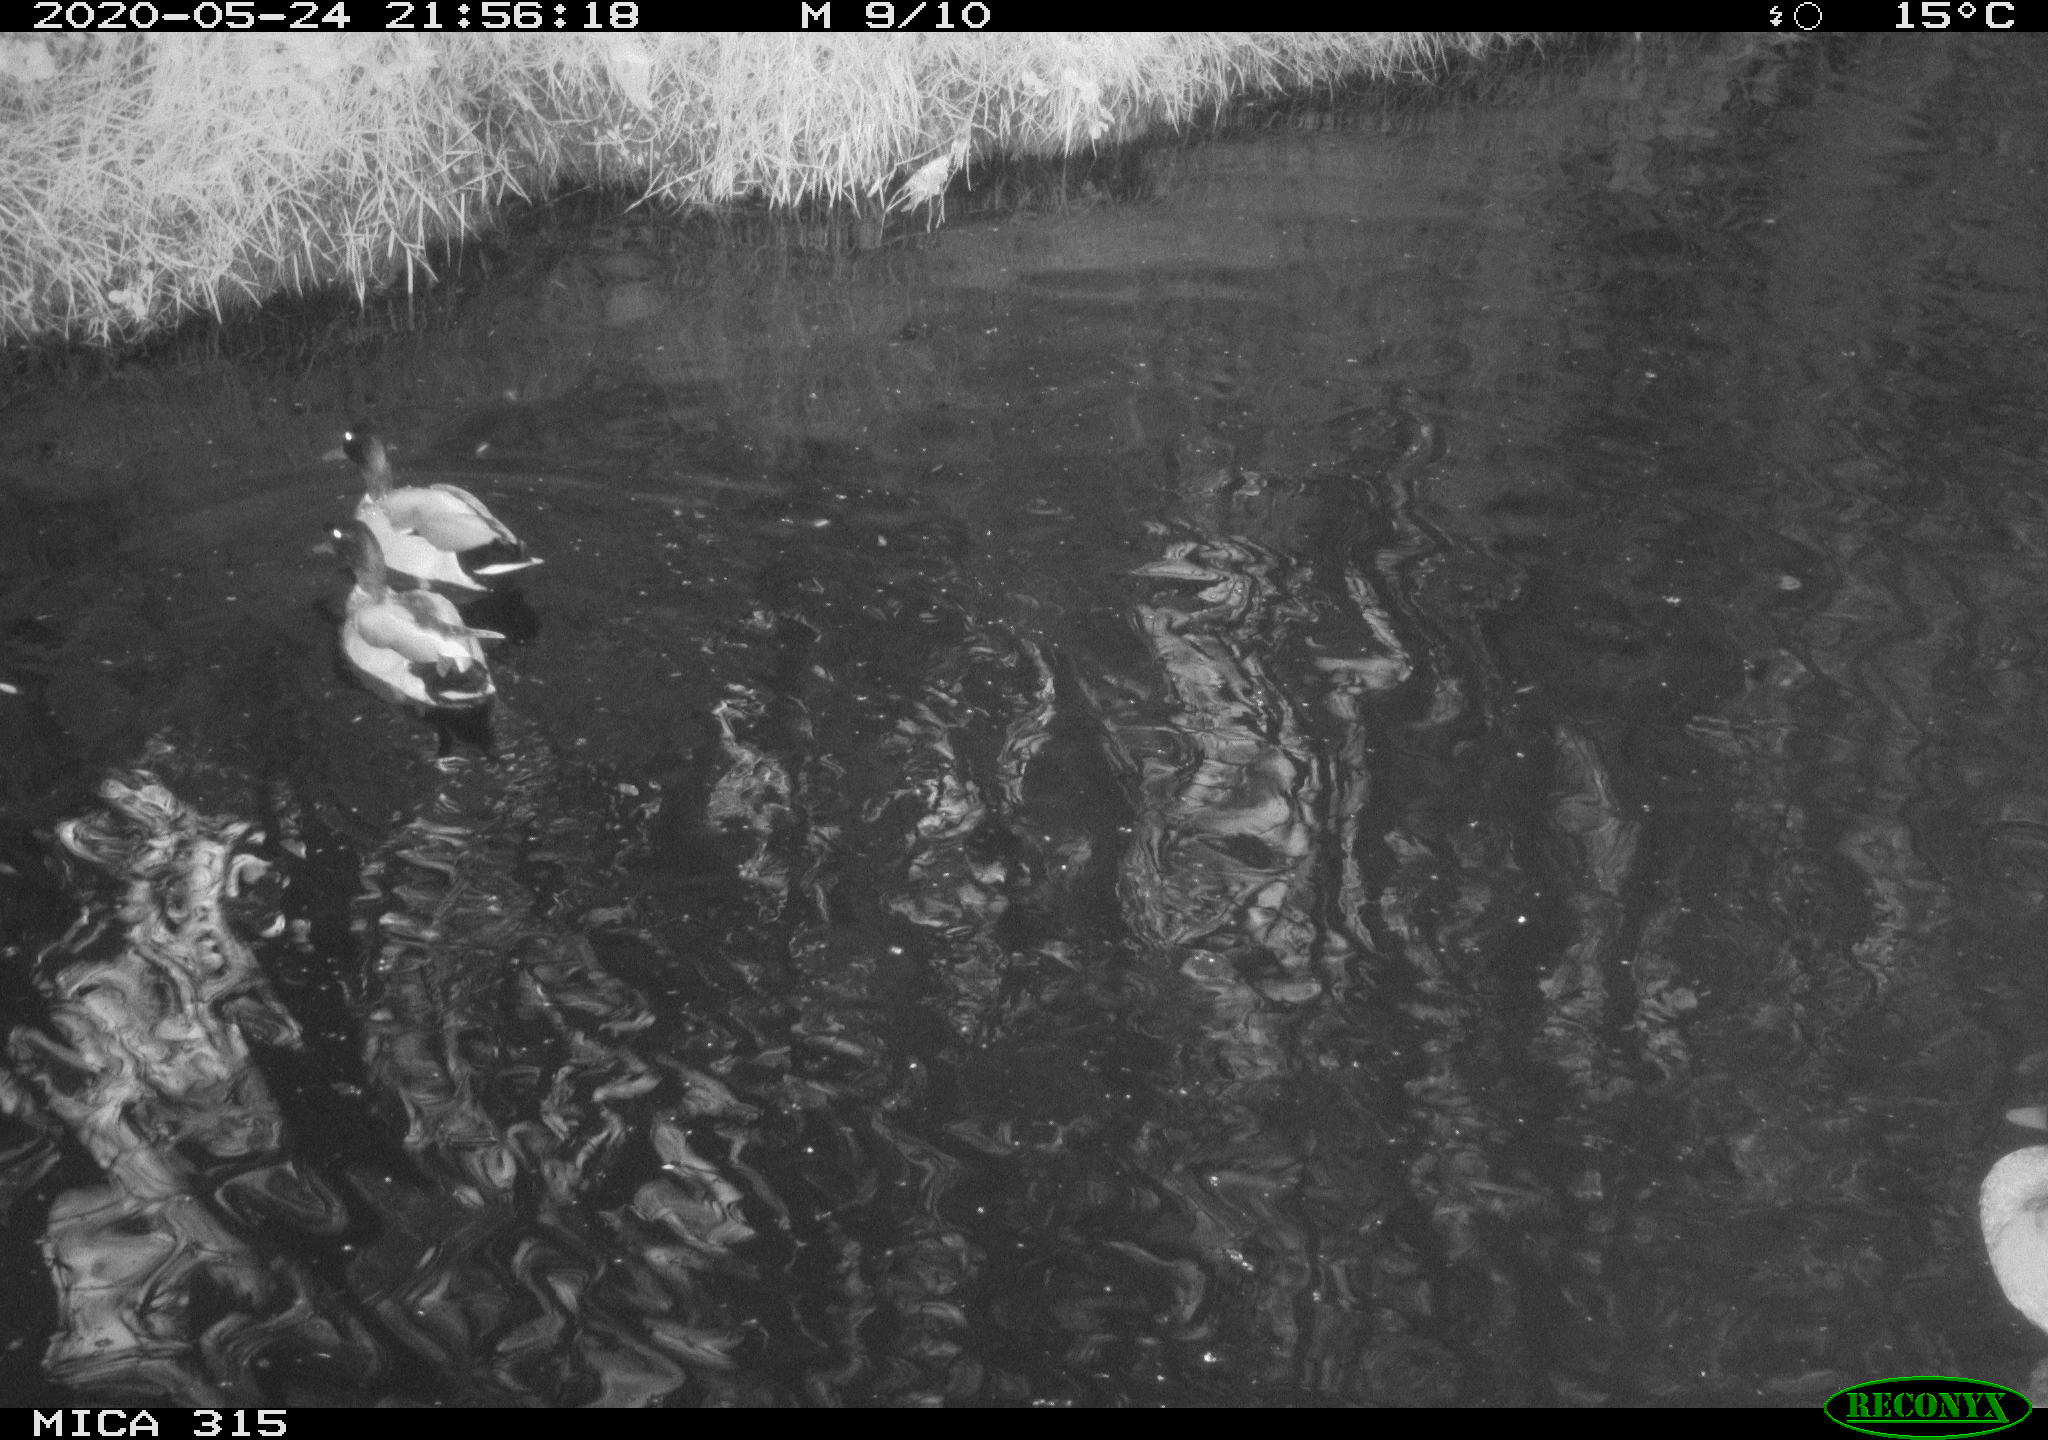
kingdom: Animalia
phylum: Chordata
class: Aves
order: Anseriformes
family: Anatidae
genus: Anas
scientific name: Anas platyrhynchos
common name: Mallard
